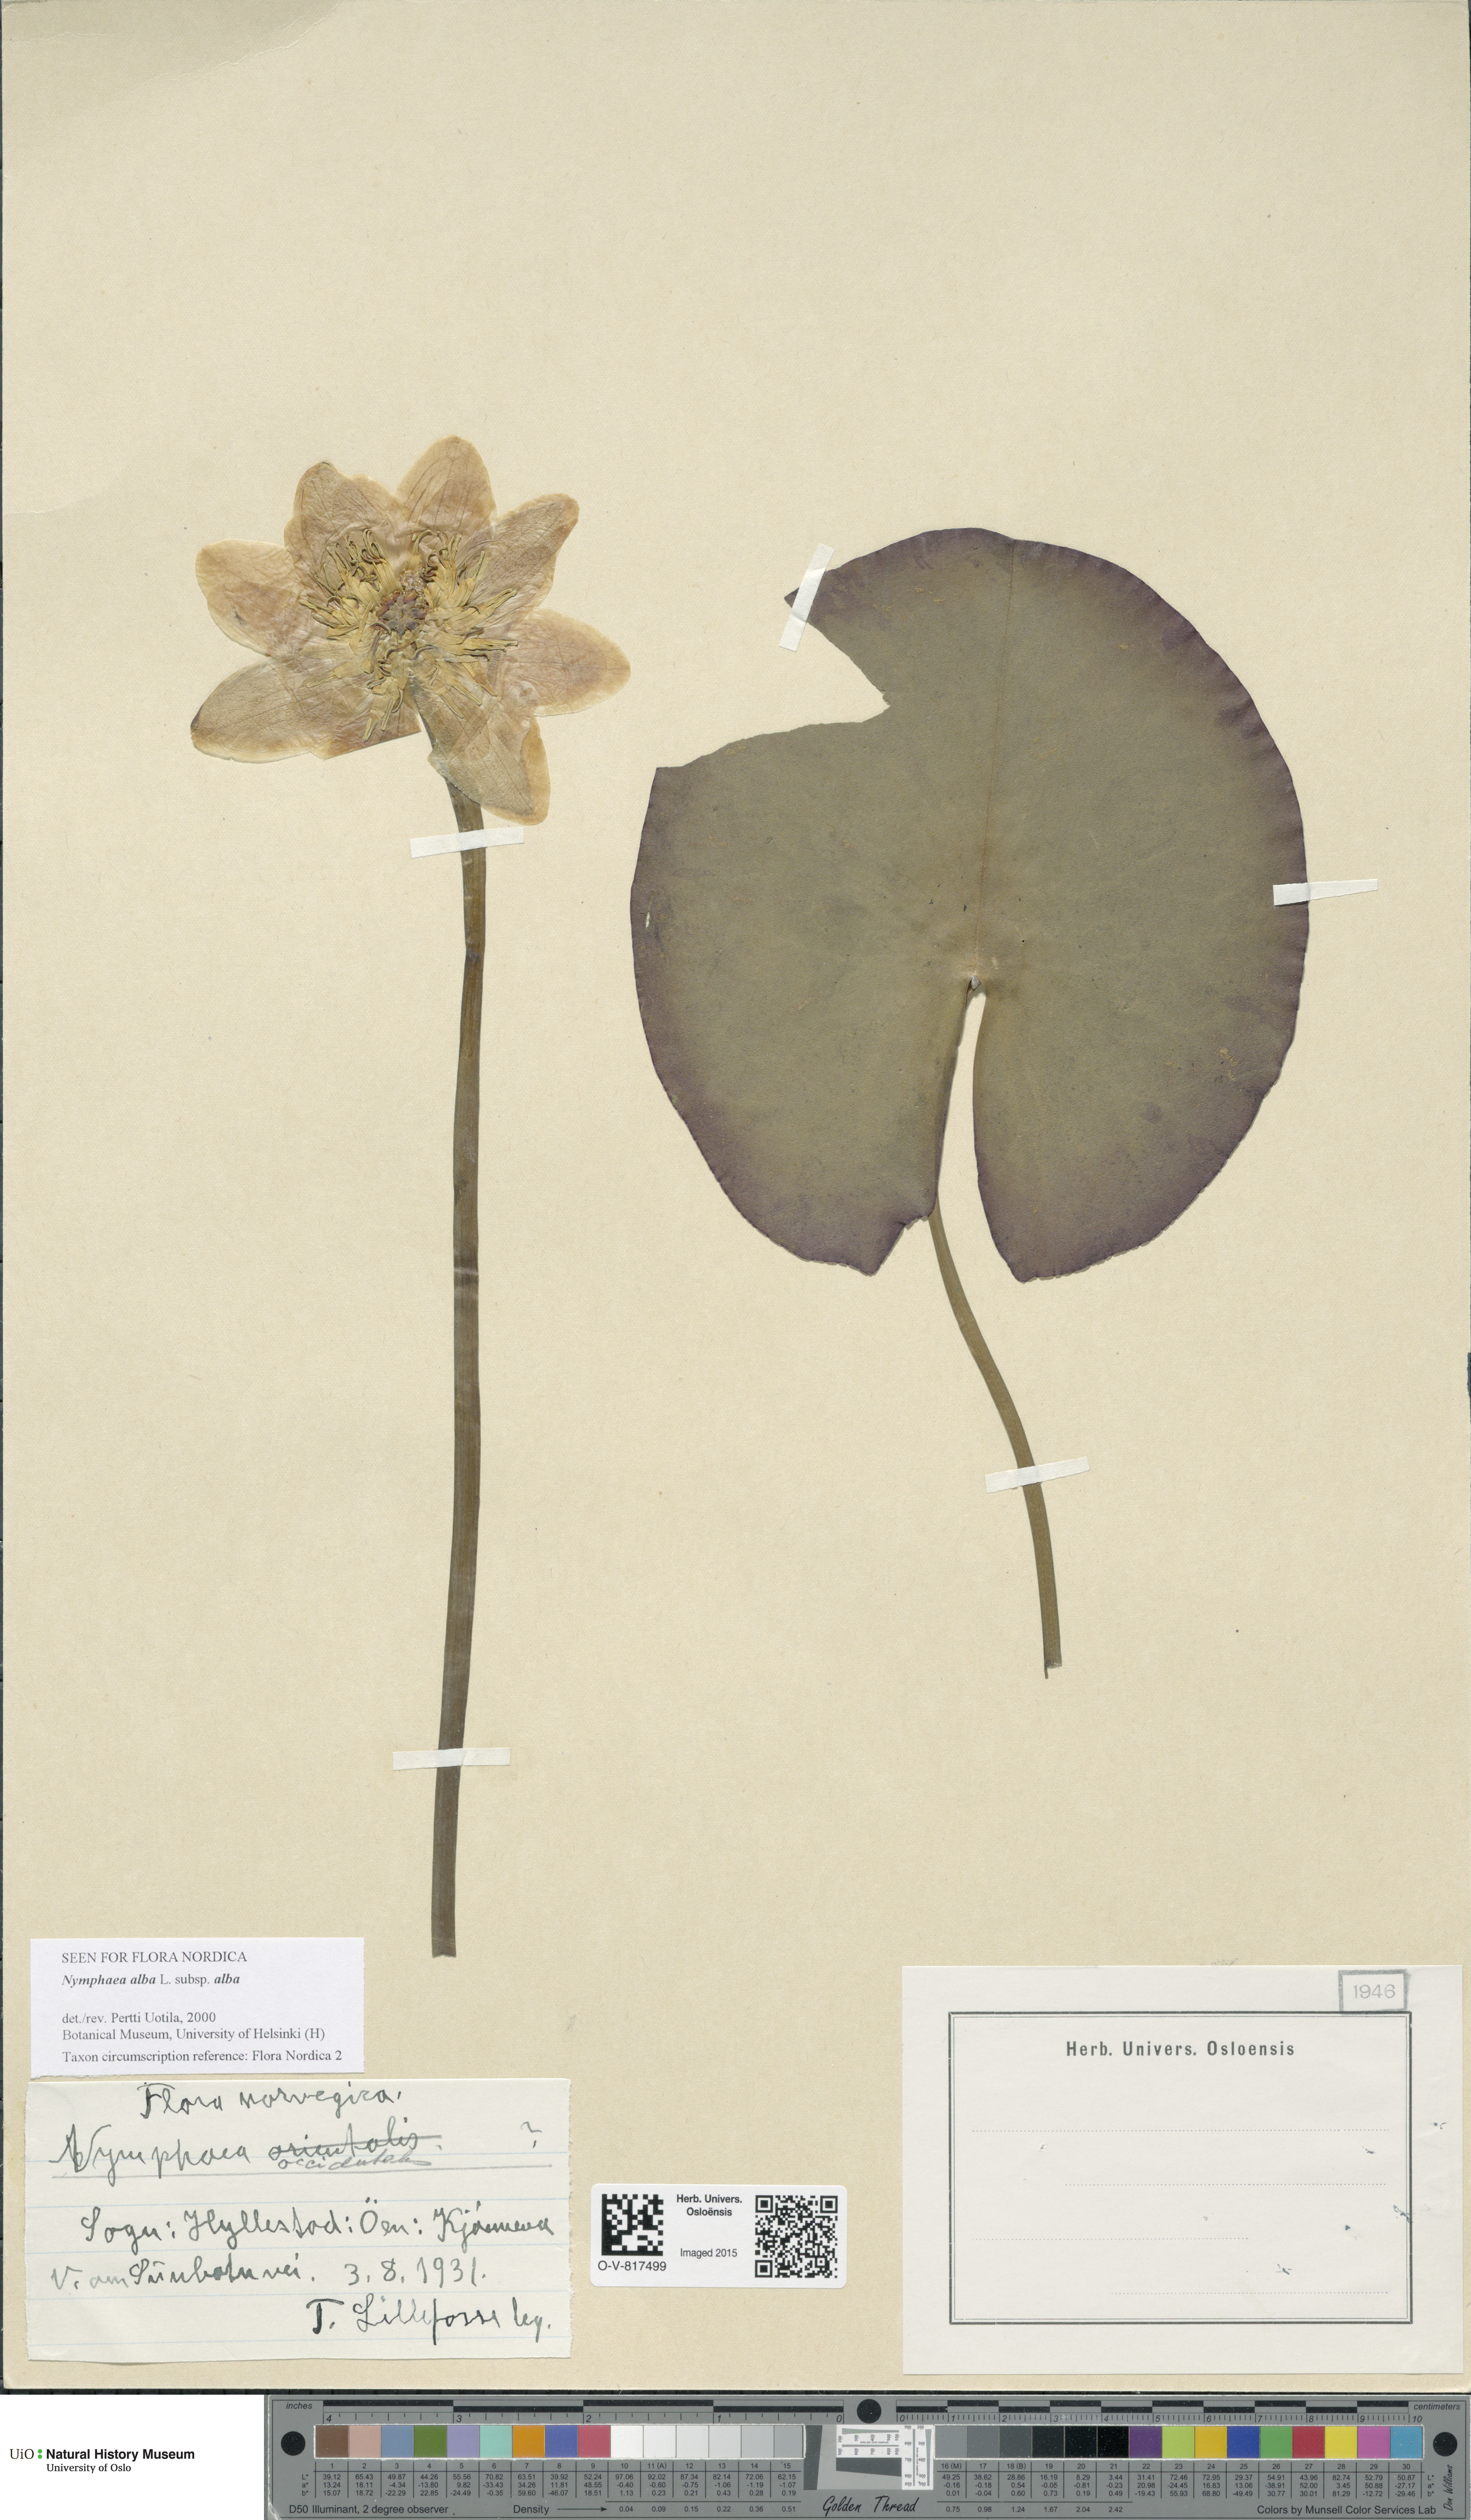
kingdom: Plantae
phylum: Tracheophyta
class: Magnoliopsida
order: Nymphaeales
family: Nymphaeaceae
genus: Nymphaea
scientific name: Nymphaea alba
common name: White water-lily
